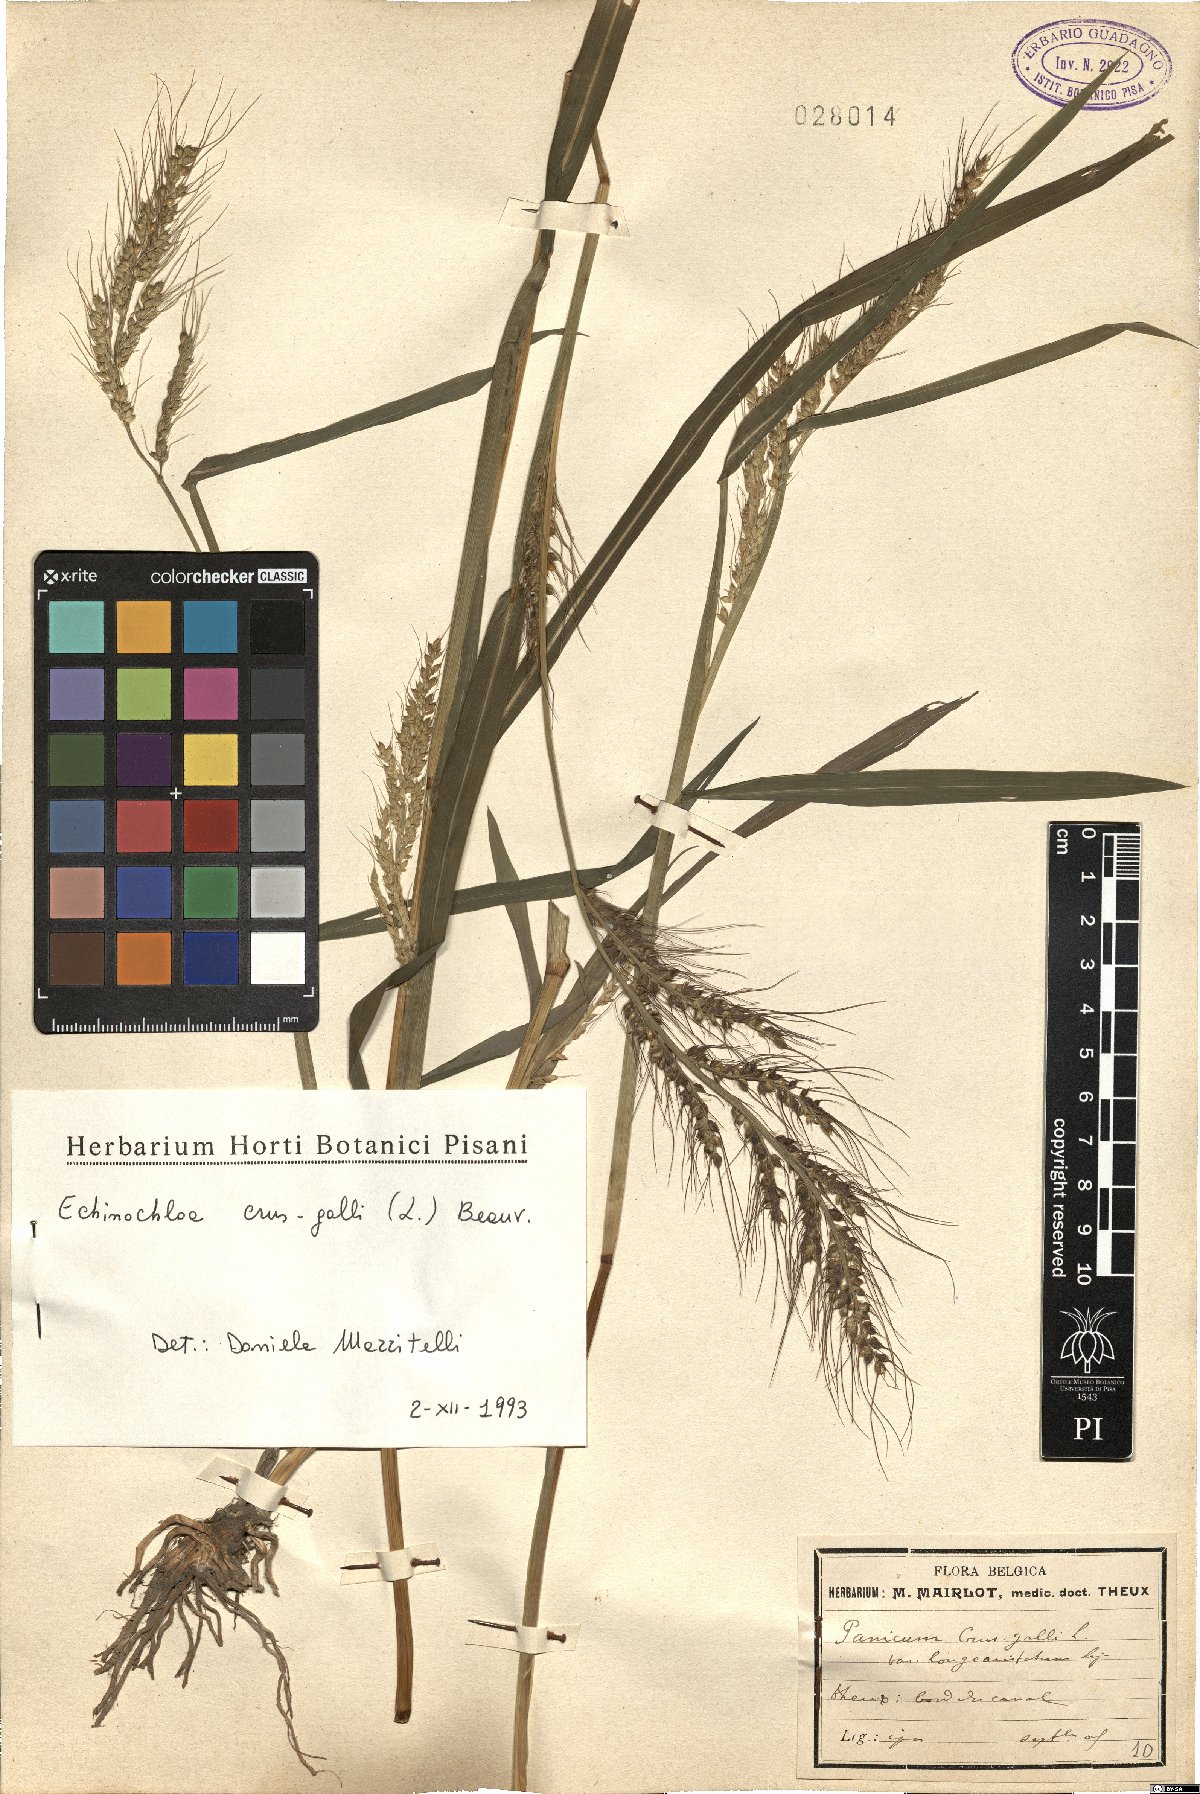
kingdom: Plantae
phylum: Tracheophyta
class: Liliopsida
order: Poales
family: Poaceae
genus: Echinochloa
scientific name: Echinochloa crus-galli
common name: Cockspur
